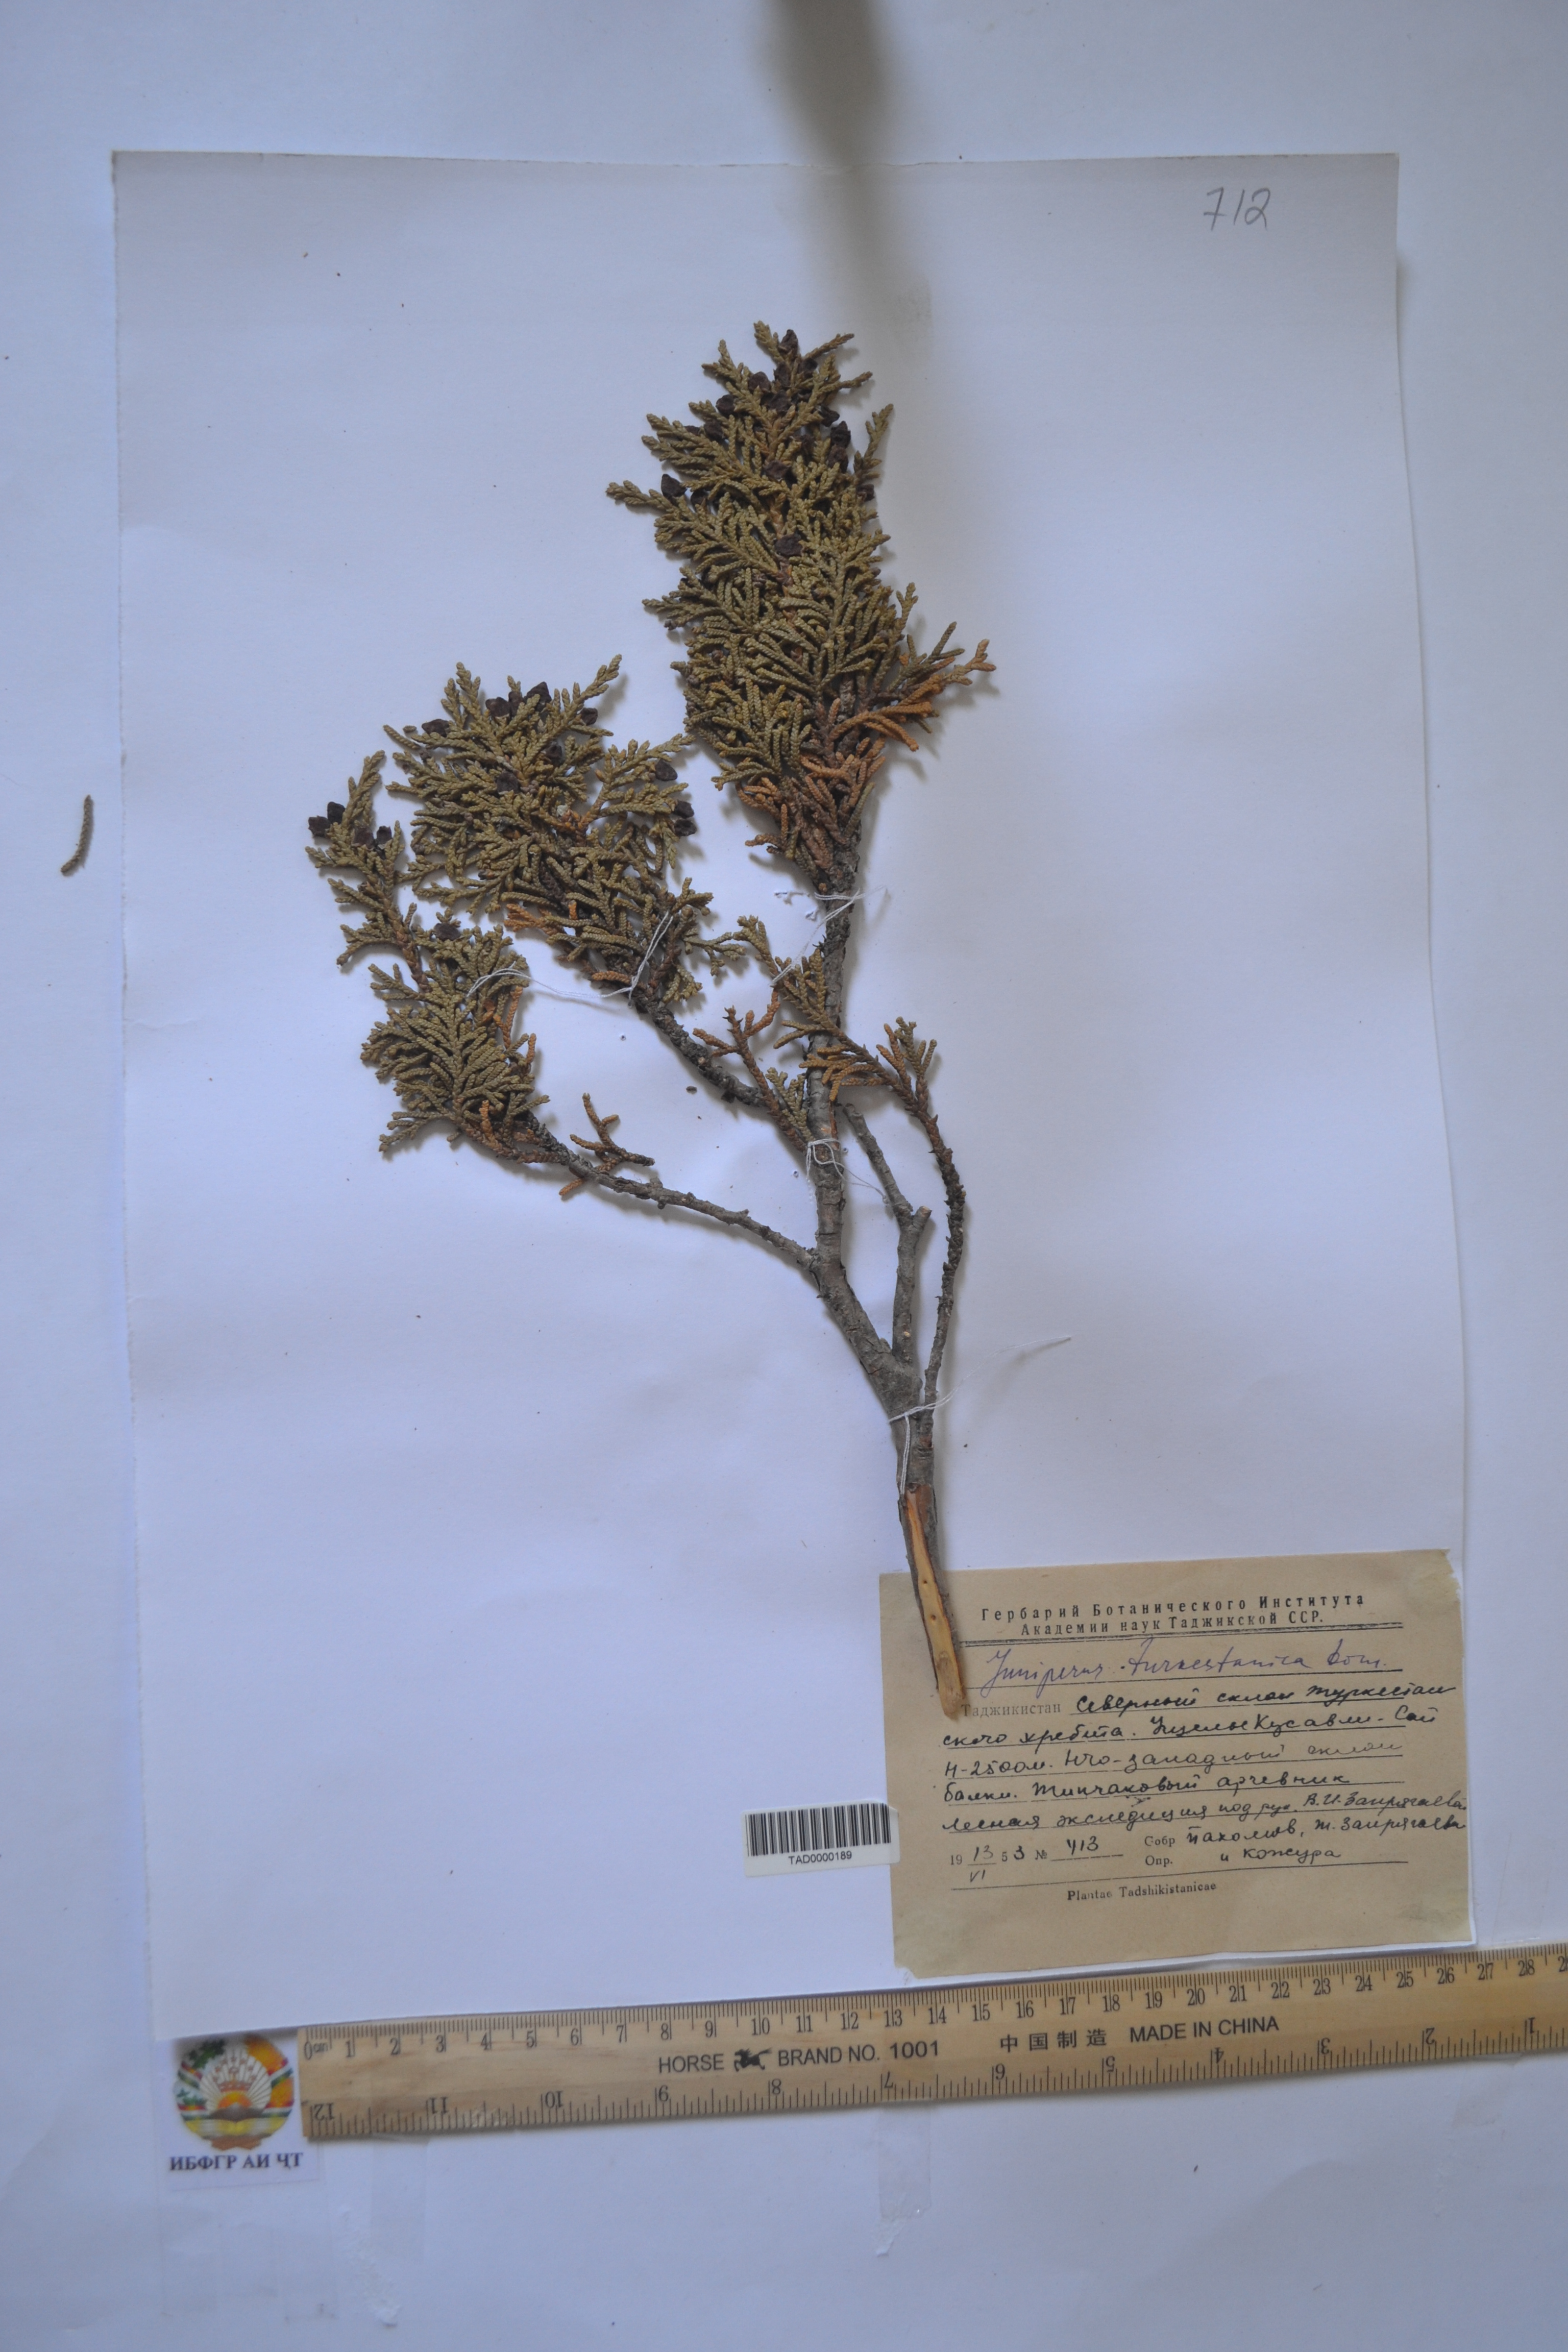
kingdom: Plantae
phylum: Tracheophyta
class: Pinopsida
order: Pinales
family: Cupressaceae
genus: Juniperus
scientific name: Juniperus pseudosabina
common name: Turkestan juniper
